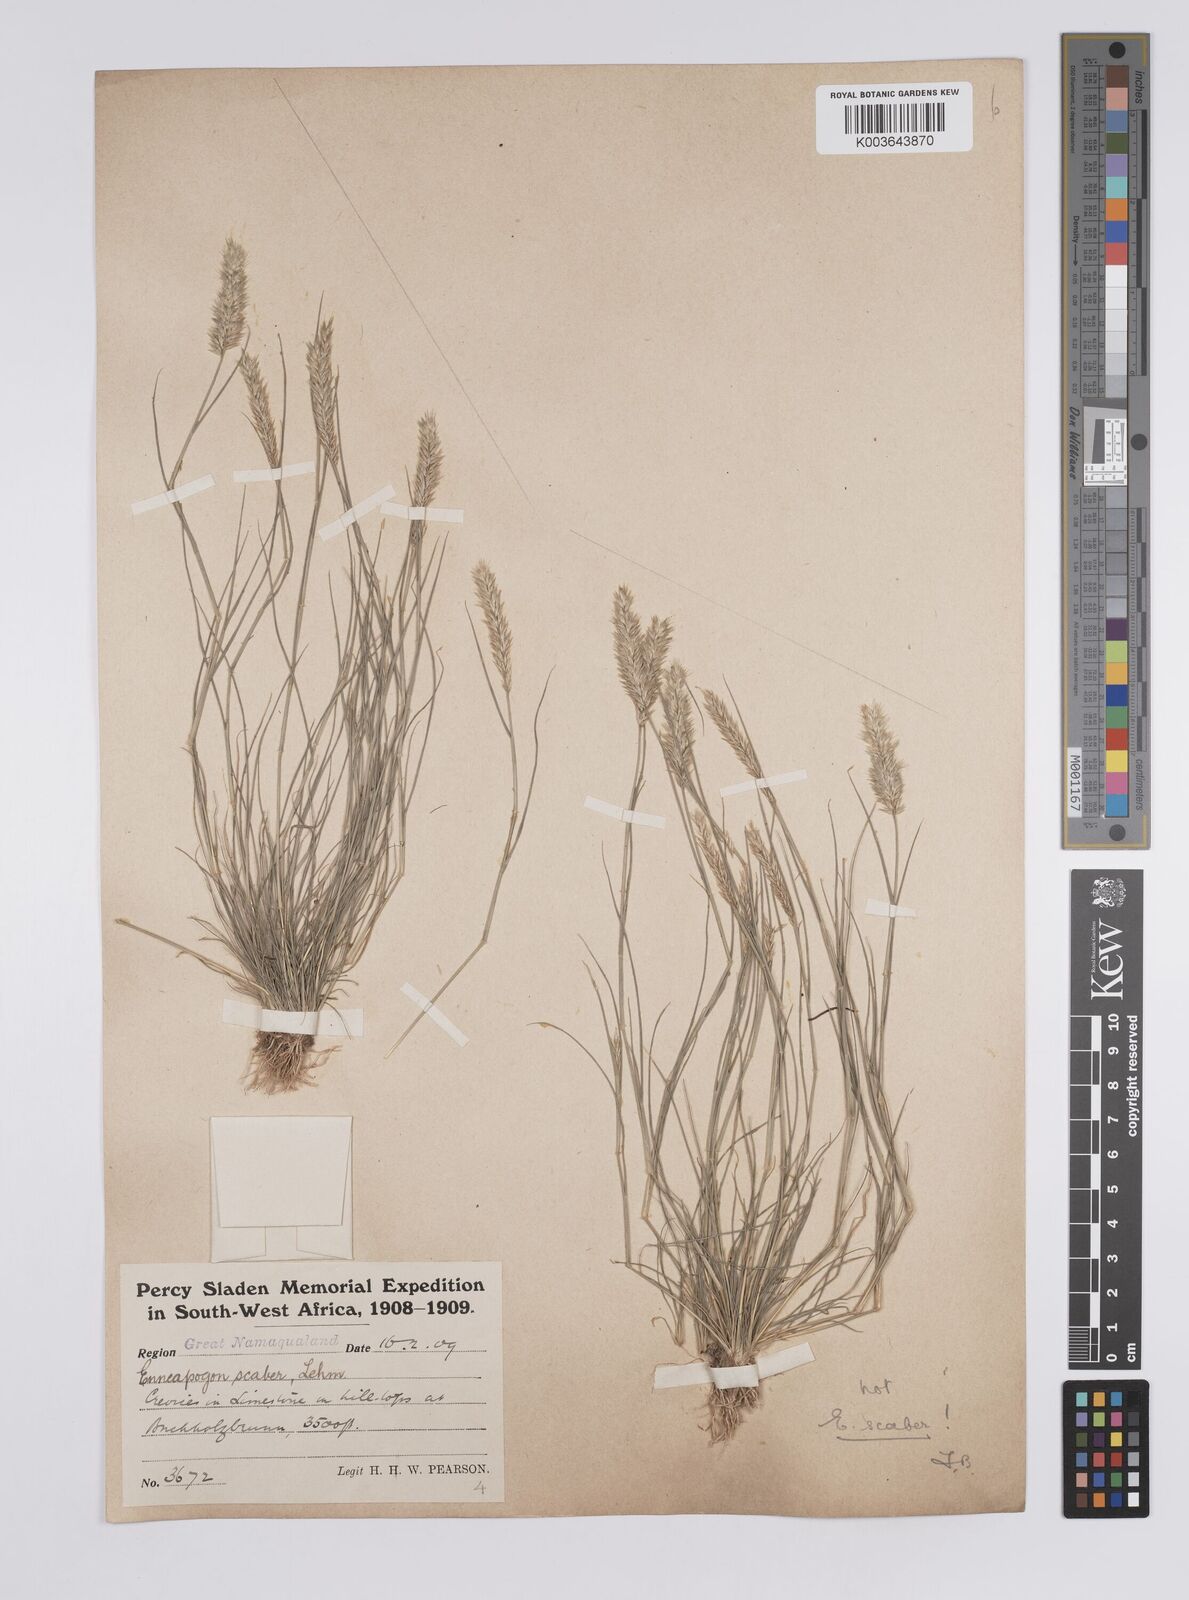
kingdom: Plantae
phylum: Tracheophyta
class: Liliopsida
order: Poales
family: Poaceae
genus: Enneapogon
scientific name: Enneapogon desvauxii
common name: Feather pappus grass
